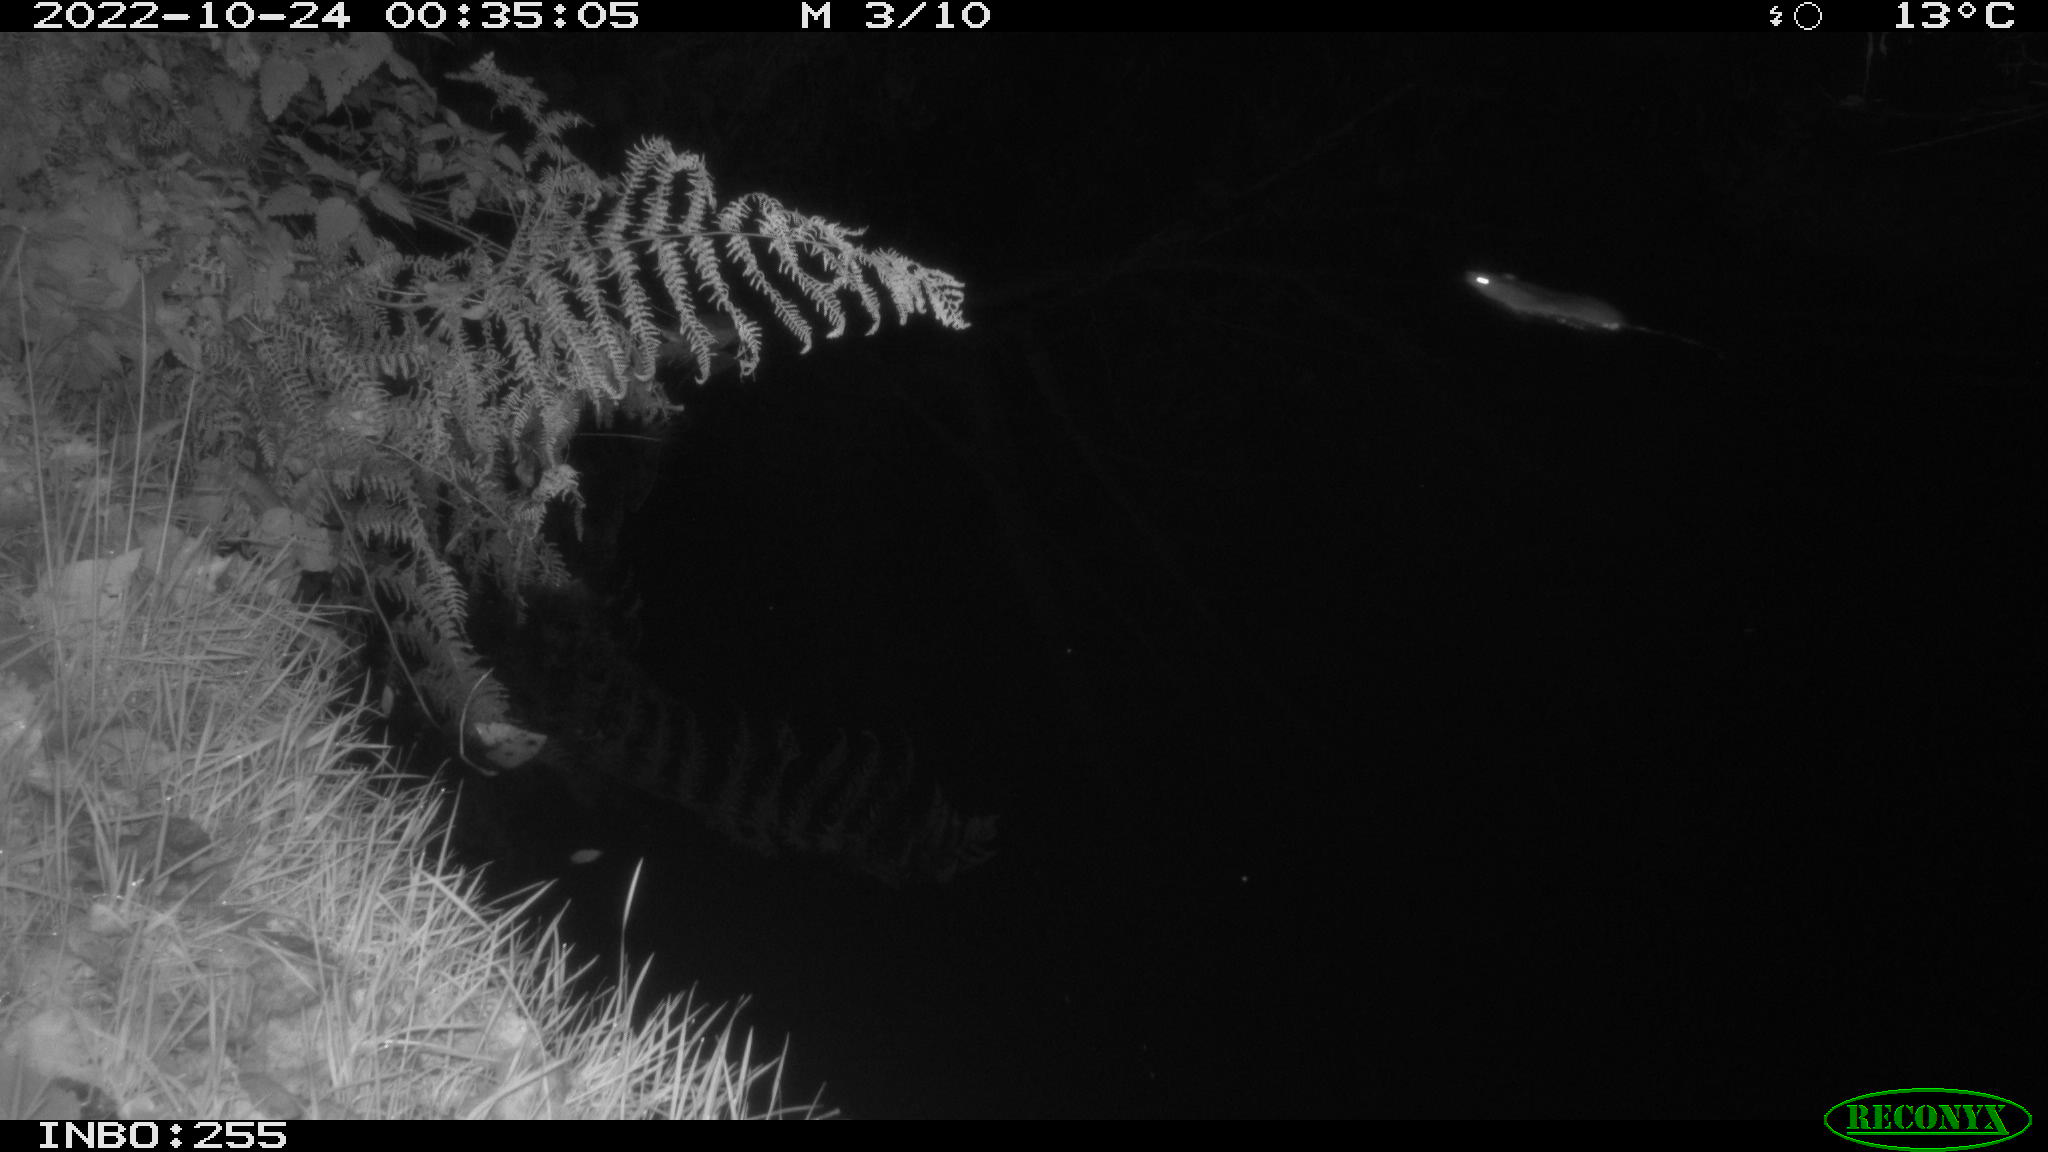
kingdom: Animalia
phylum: Chordata
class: Mammalia
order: Rodentia
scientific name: Rodentia
